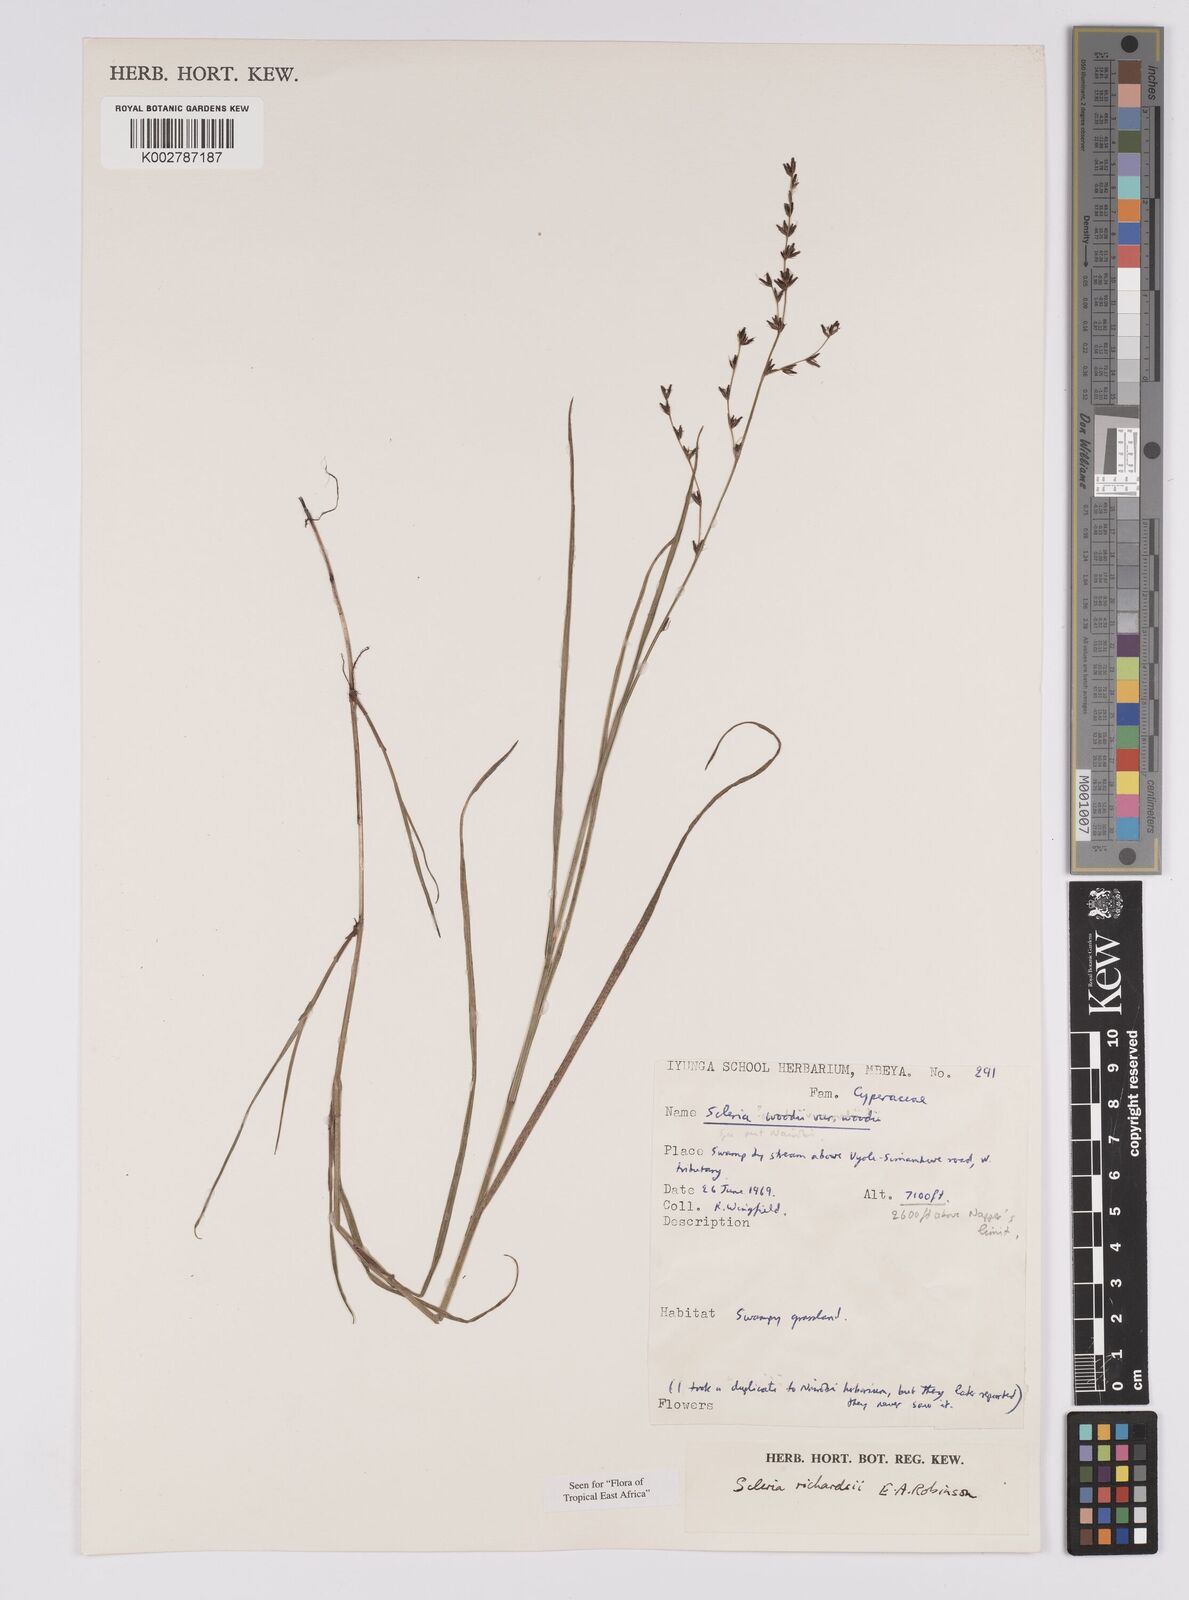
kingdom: Plantae
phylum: Tracheophyta
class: Liliopsida
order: Poales
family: Cyperaceae
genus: Scleria
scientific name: Scleria richardsiae
